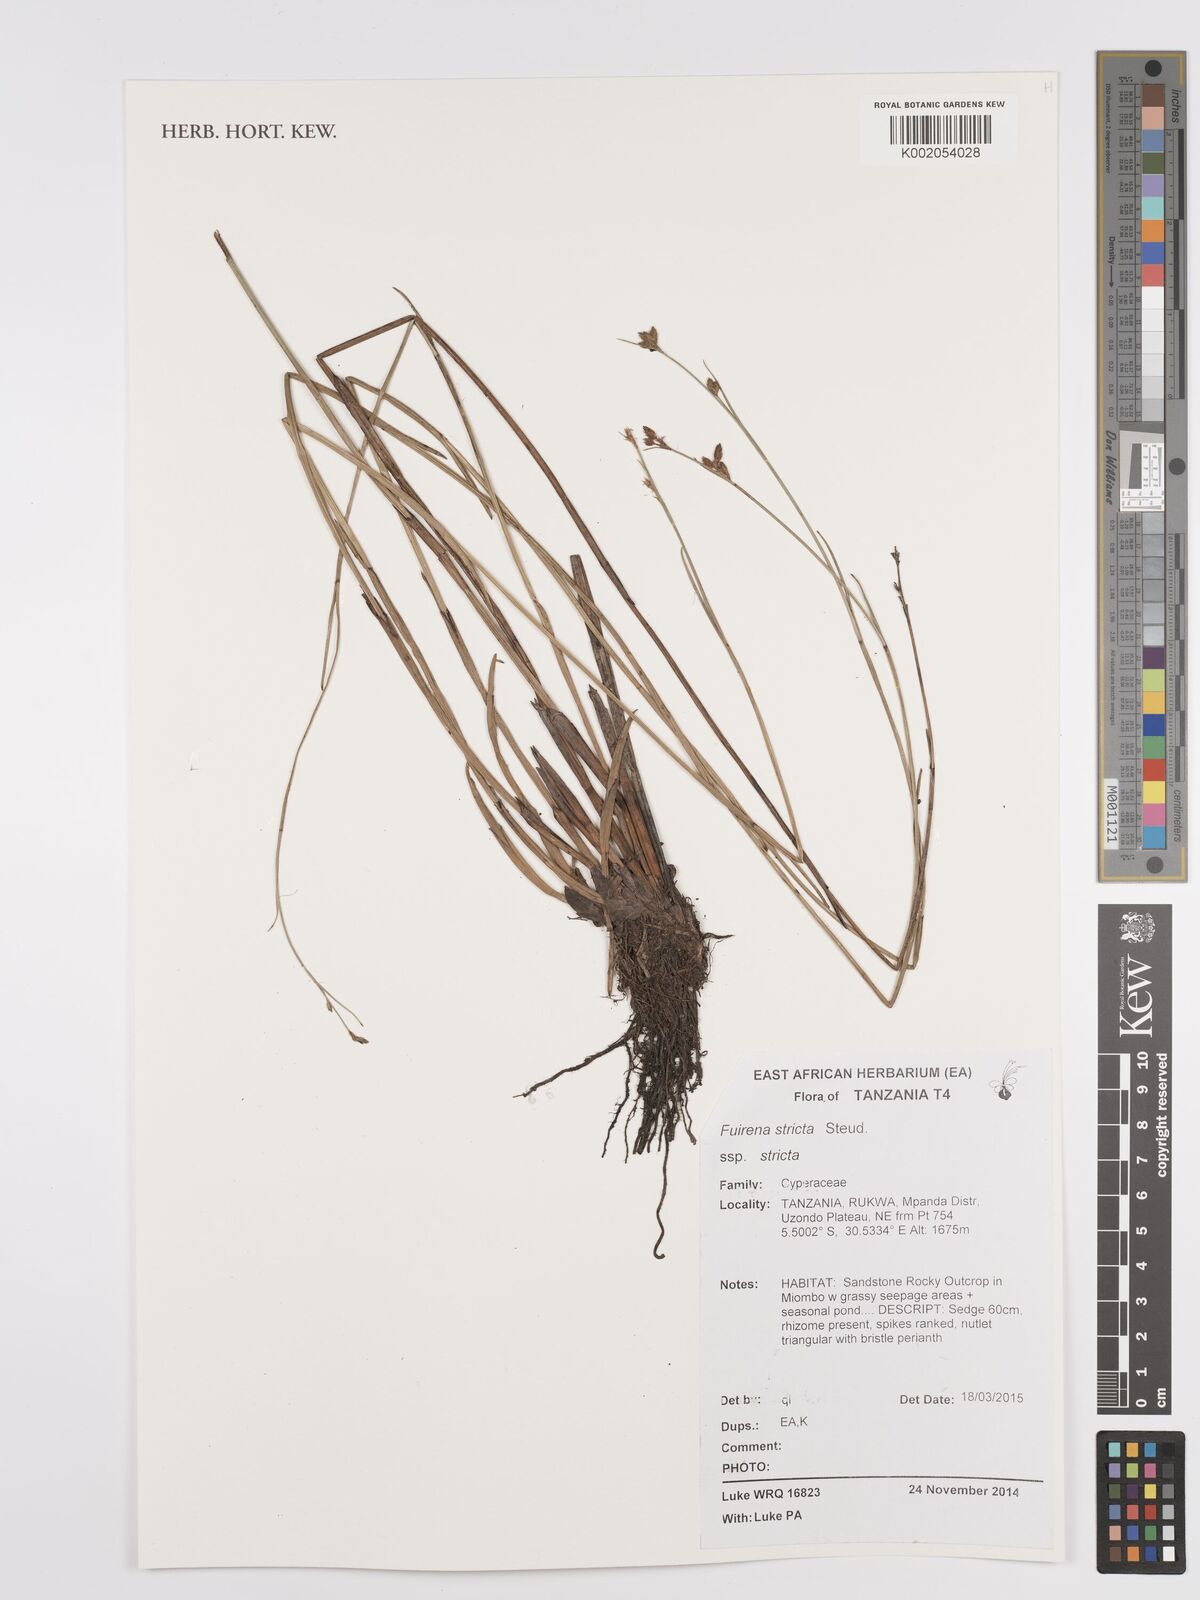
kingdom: Plantae
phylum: Tracheophyta
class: Liliopsida
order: Poales
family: Cyperaceae
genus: Fuirena
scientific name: Fuirena stricta
